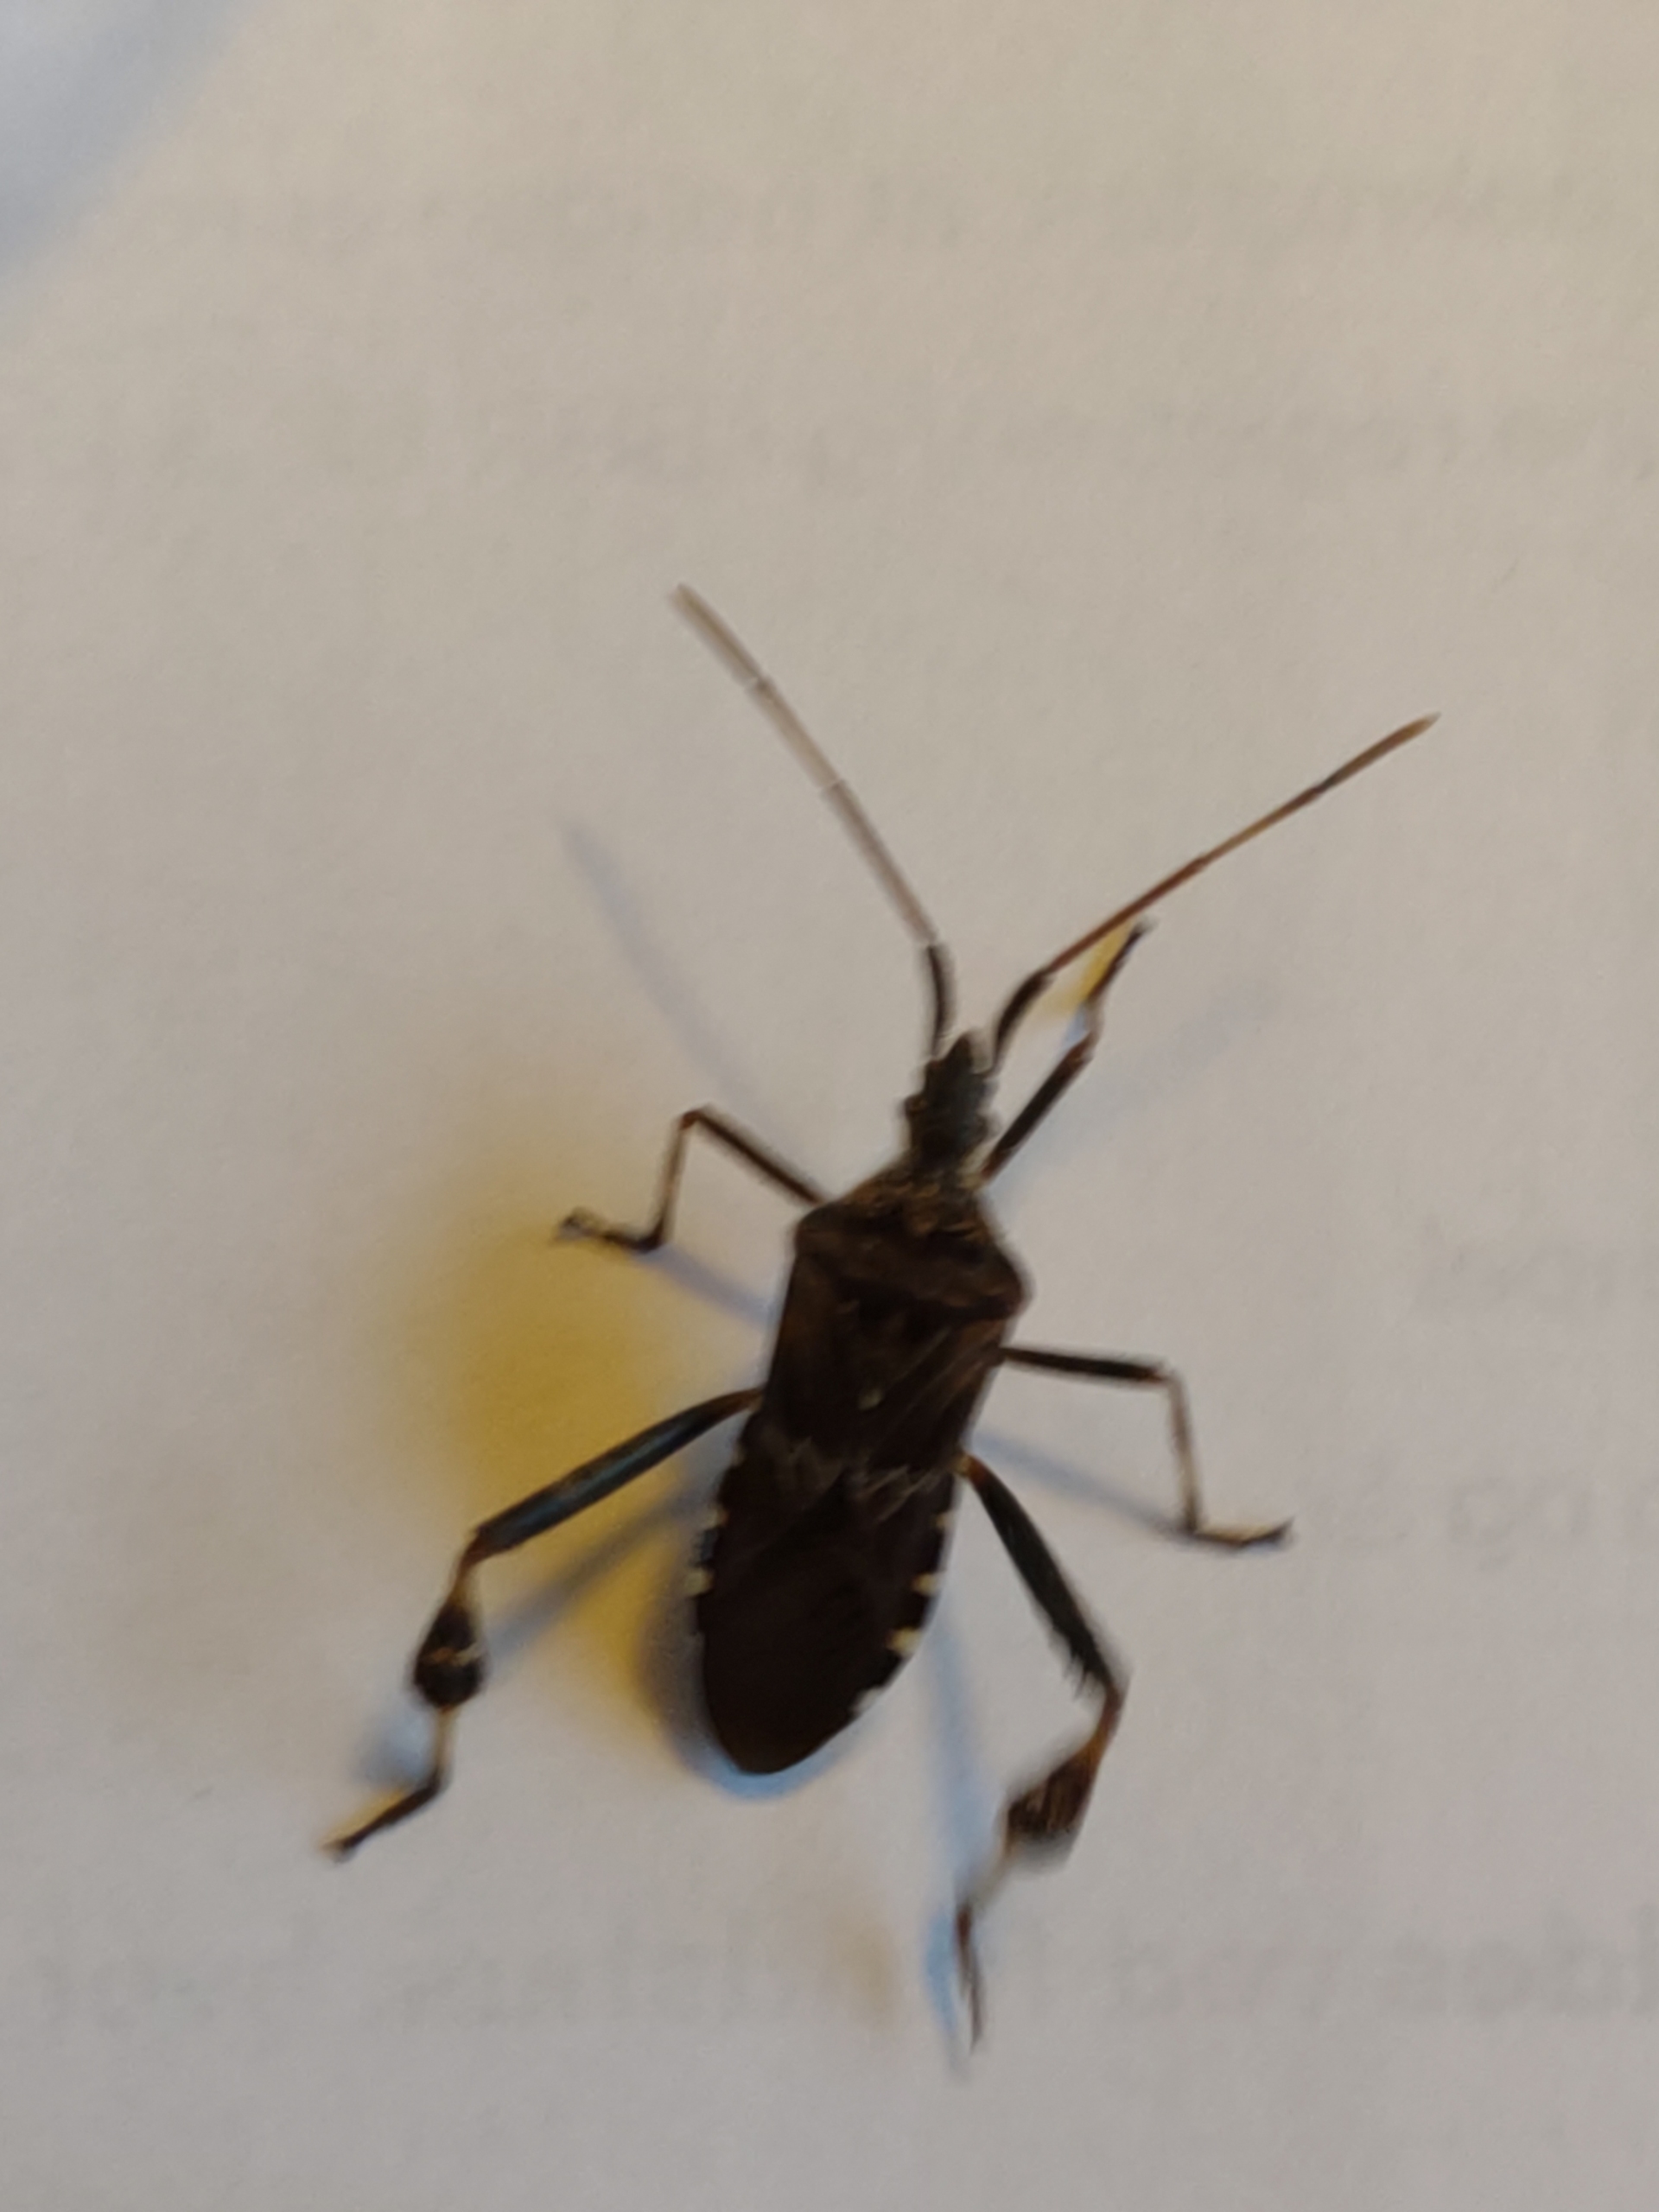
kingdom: Animalia
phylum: Arthropoda
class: Insecta
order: Hemiptera
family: Coreidae
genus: Leptoglossus
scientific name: Leptoglossus occidentalis
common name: Amerikansk fyrretæge
